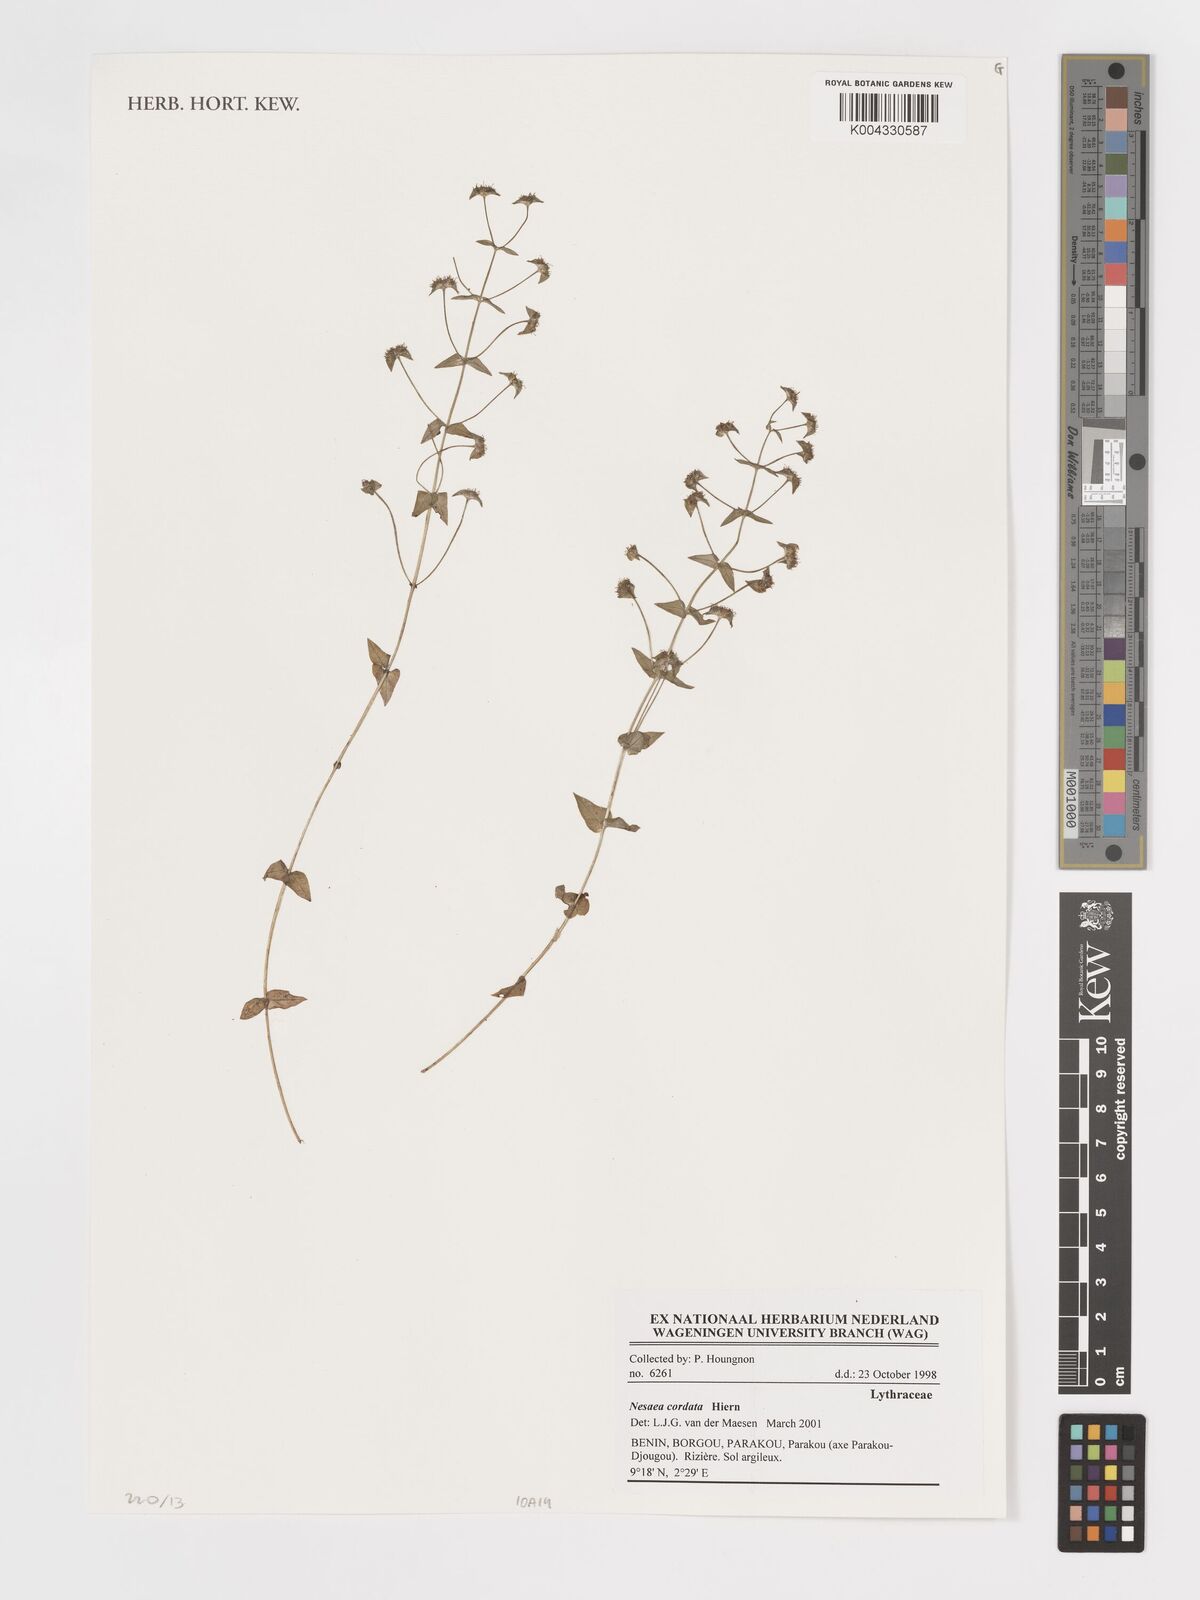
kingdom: Plantae
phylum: Tracheophyta
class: Magnoliopsida
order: Myrtales
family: Lythraceae
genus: Nesaea
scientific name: Nesaea
